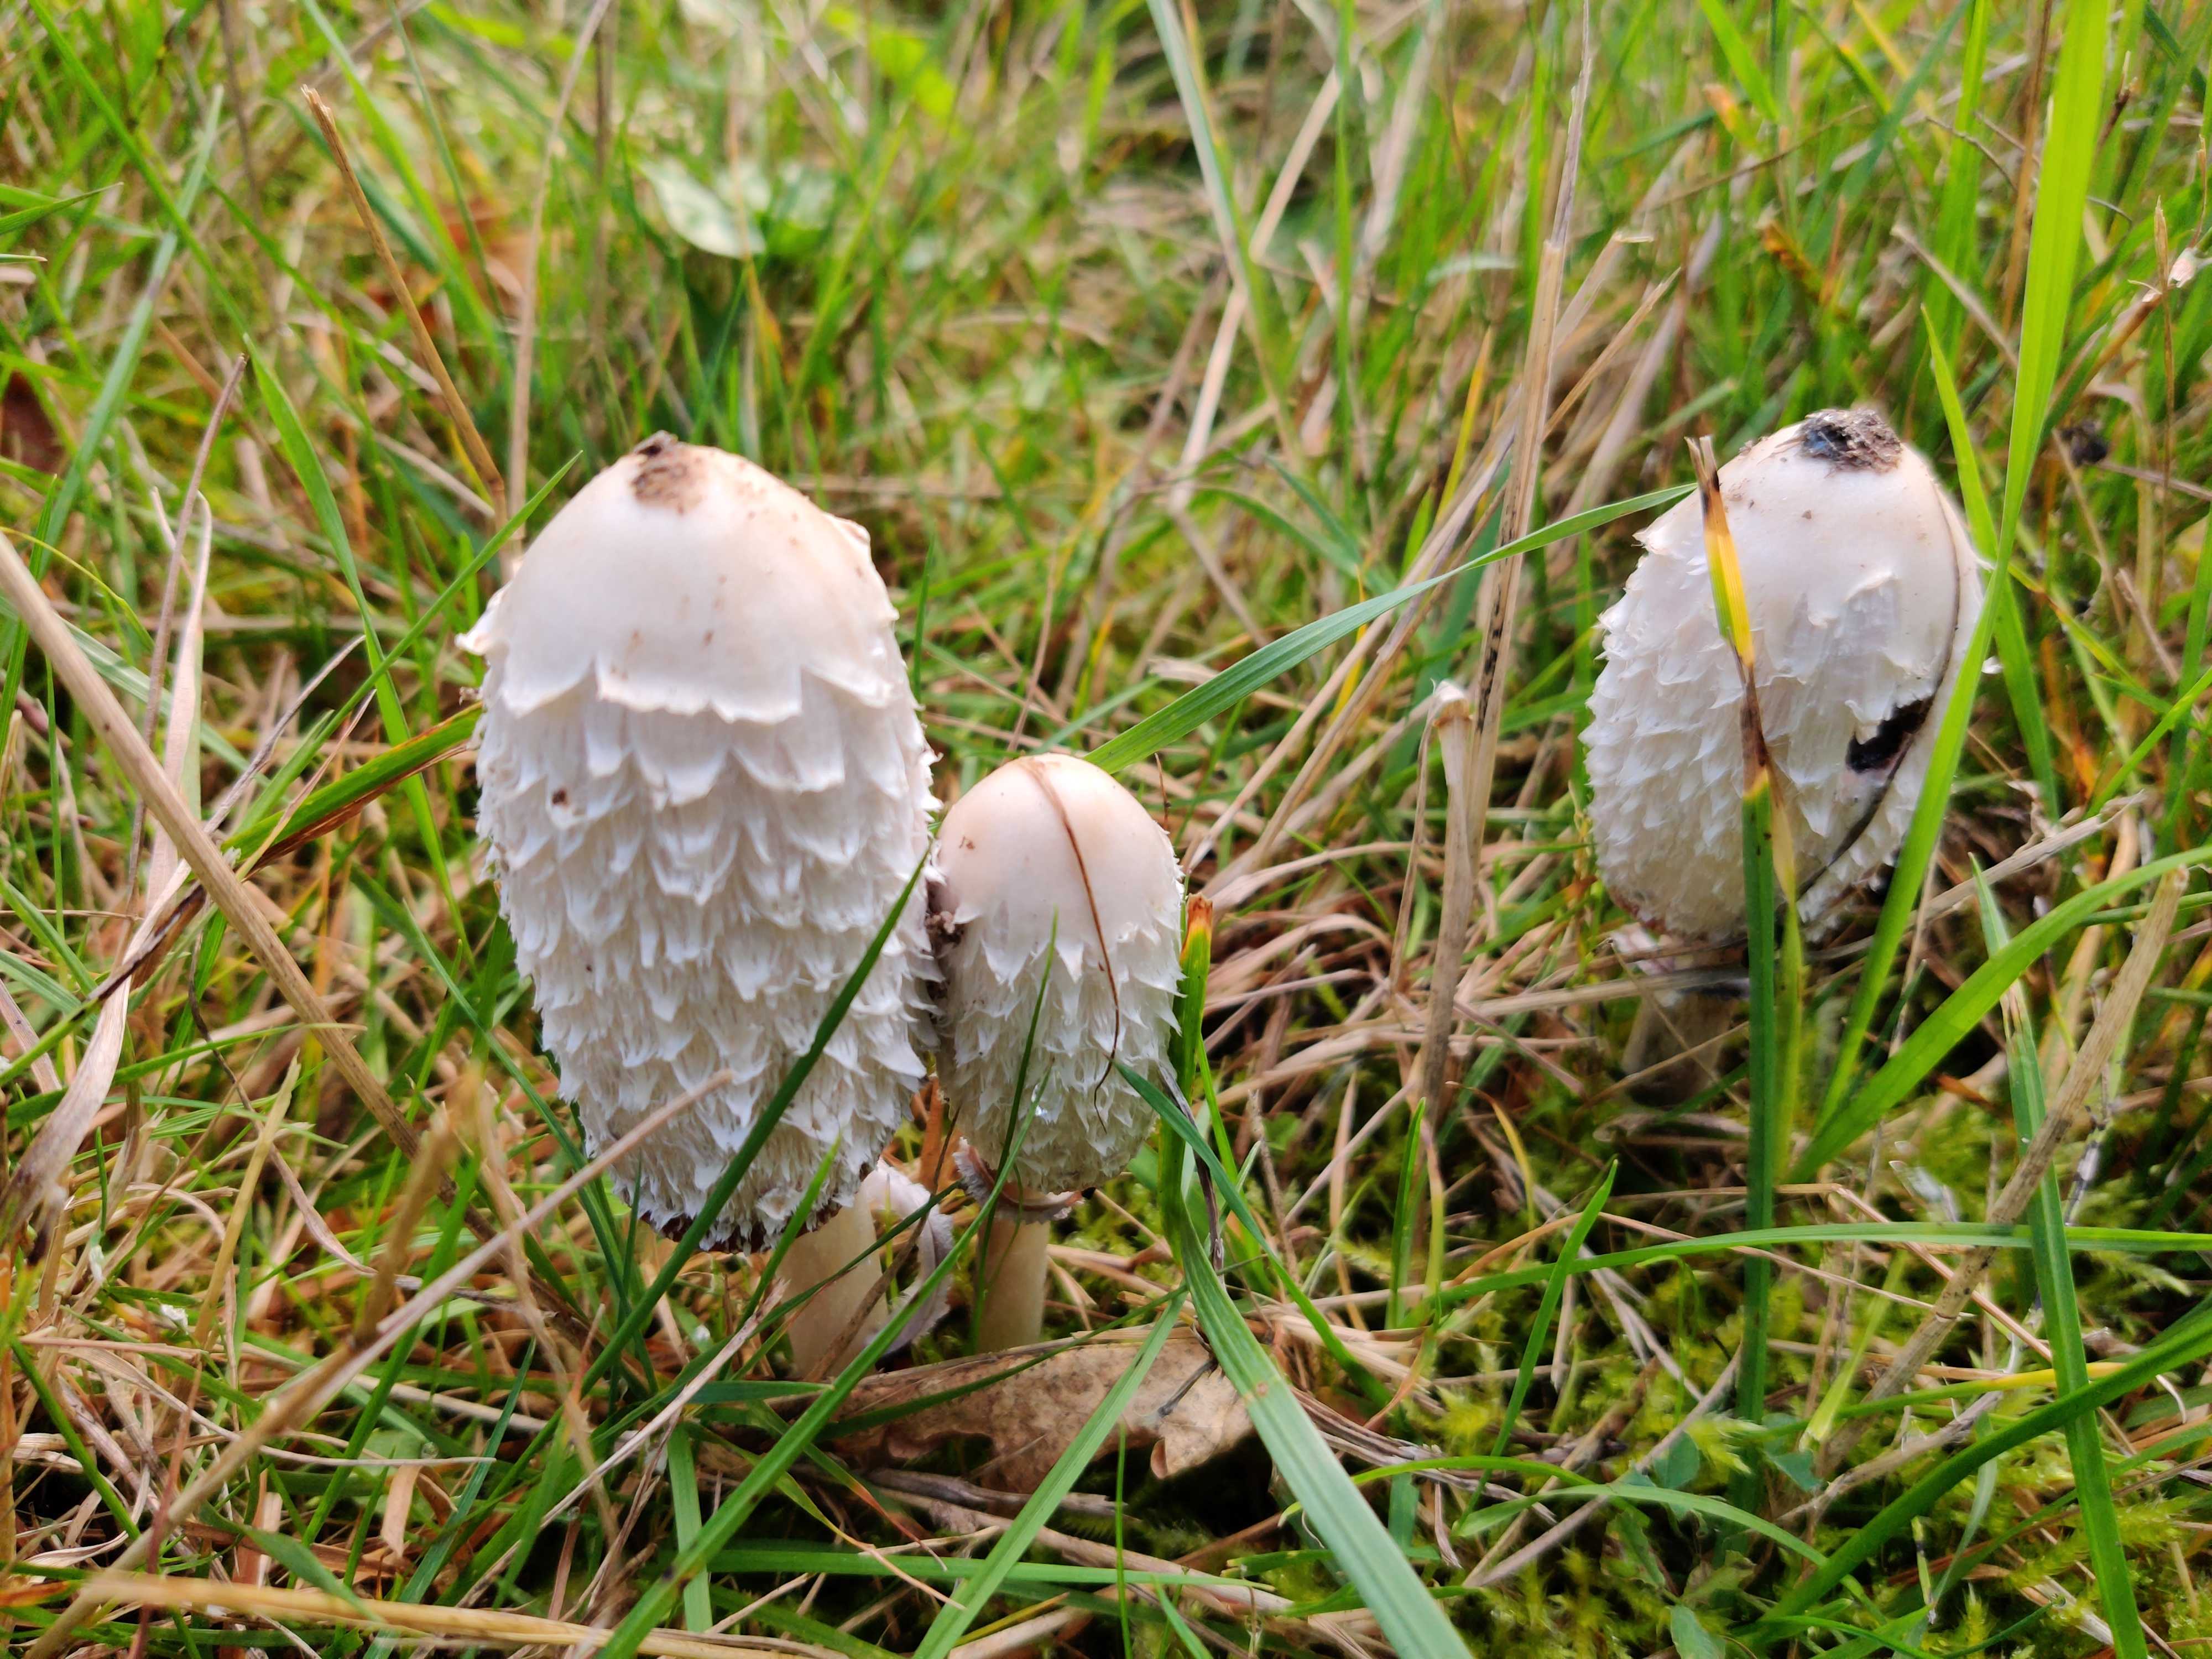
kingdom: Fungi
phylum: Basidiomycota
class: Agaricomycetes
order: Agaricales
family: Agaricaceae
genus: Coprinus
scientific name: Coprinus comatus
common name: stor parykhat
